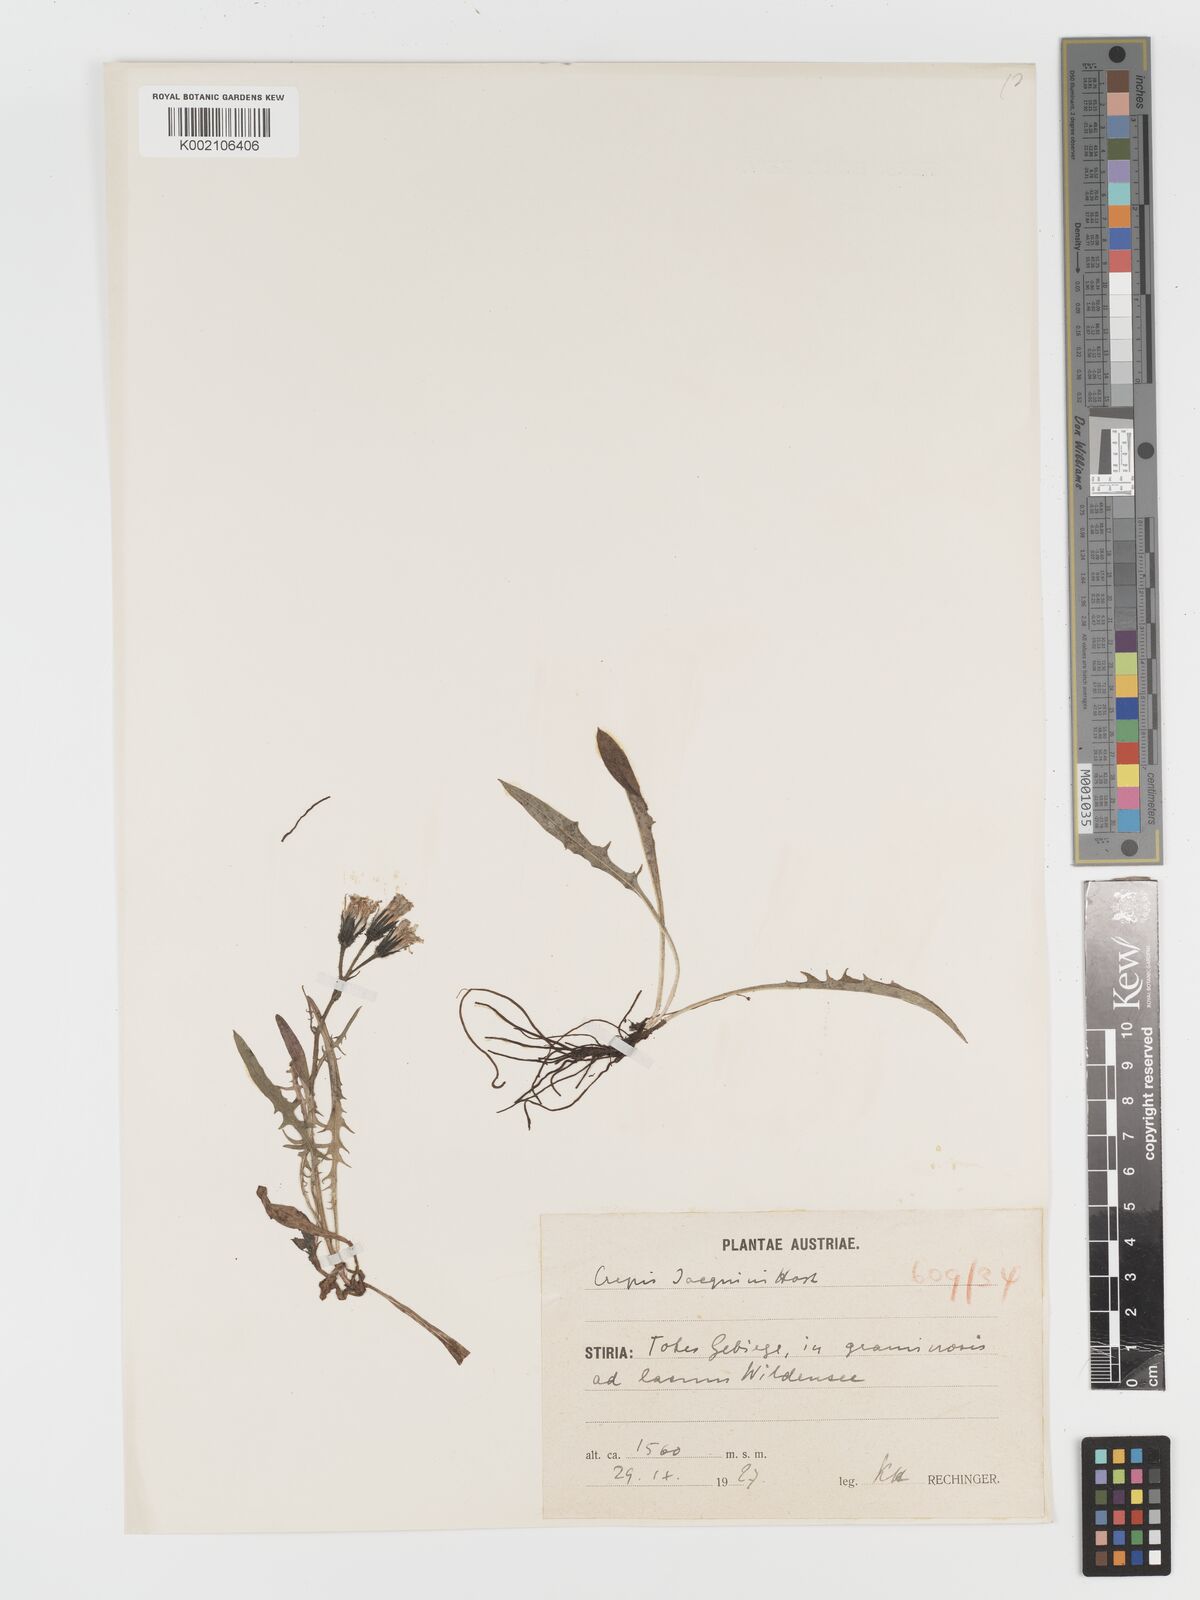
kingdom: Plantae
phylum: Tracheophyta
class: Magnoliopsida
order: Asterales
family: Asteraceae
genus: Crepis
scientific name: Crepis jacquinii
